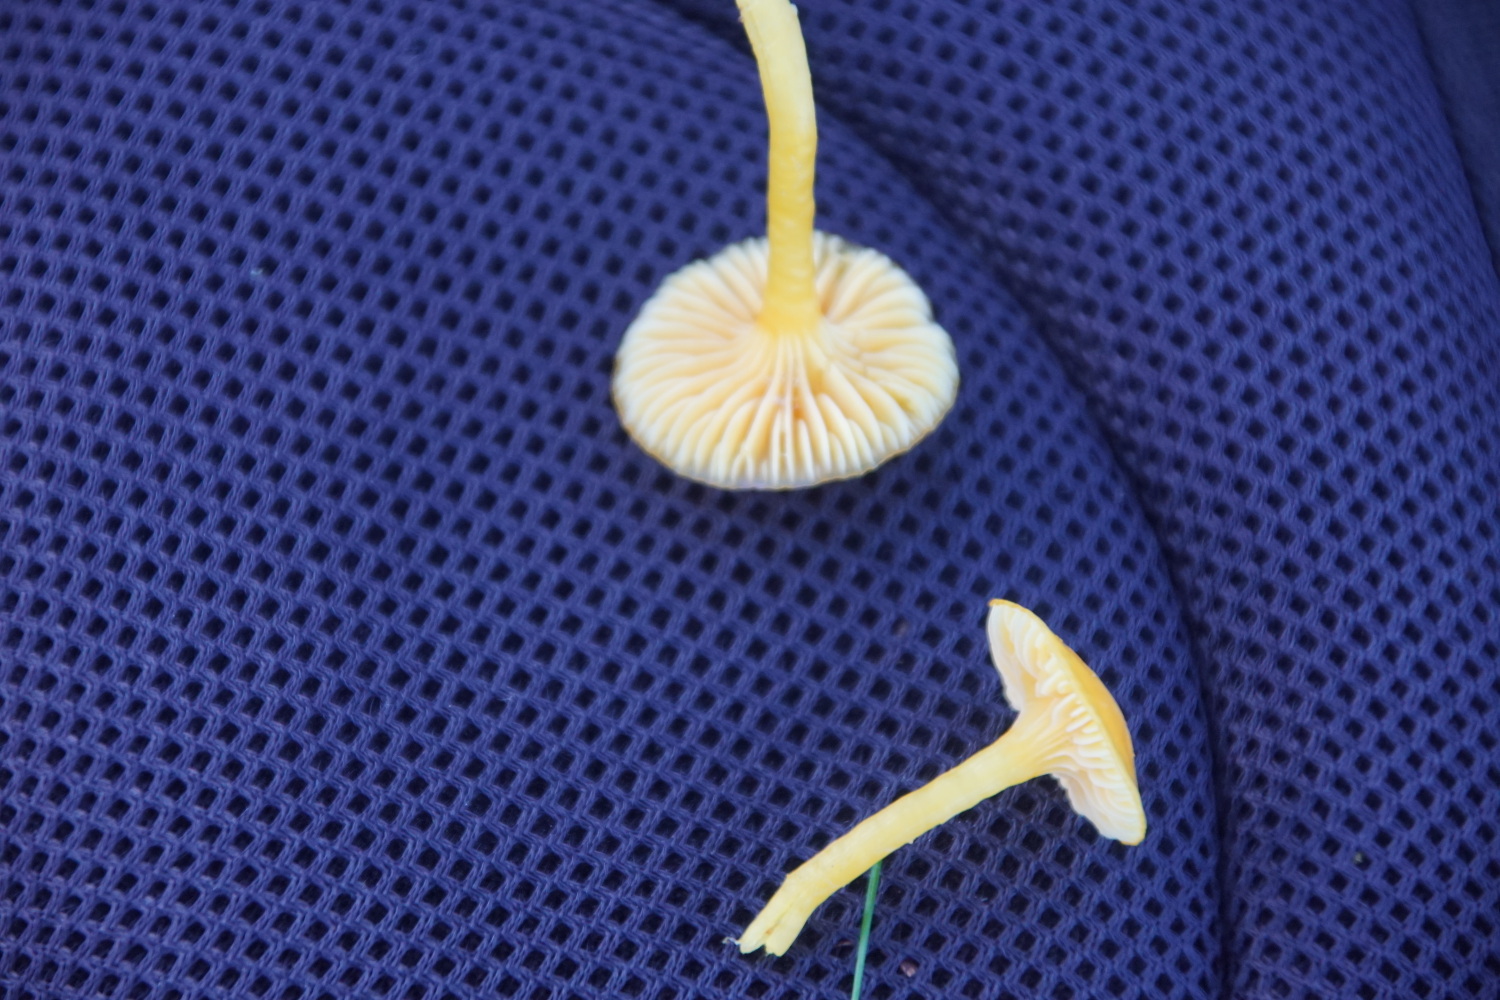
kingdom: Fungi
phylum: Basidiomycota
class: Agaricomycetes
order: Agaricales
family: Hygrophoraceae
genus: Hygrocybe
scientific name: Hygrocybe ceracea
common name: voksgul vokshat
